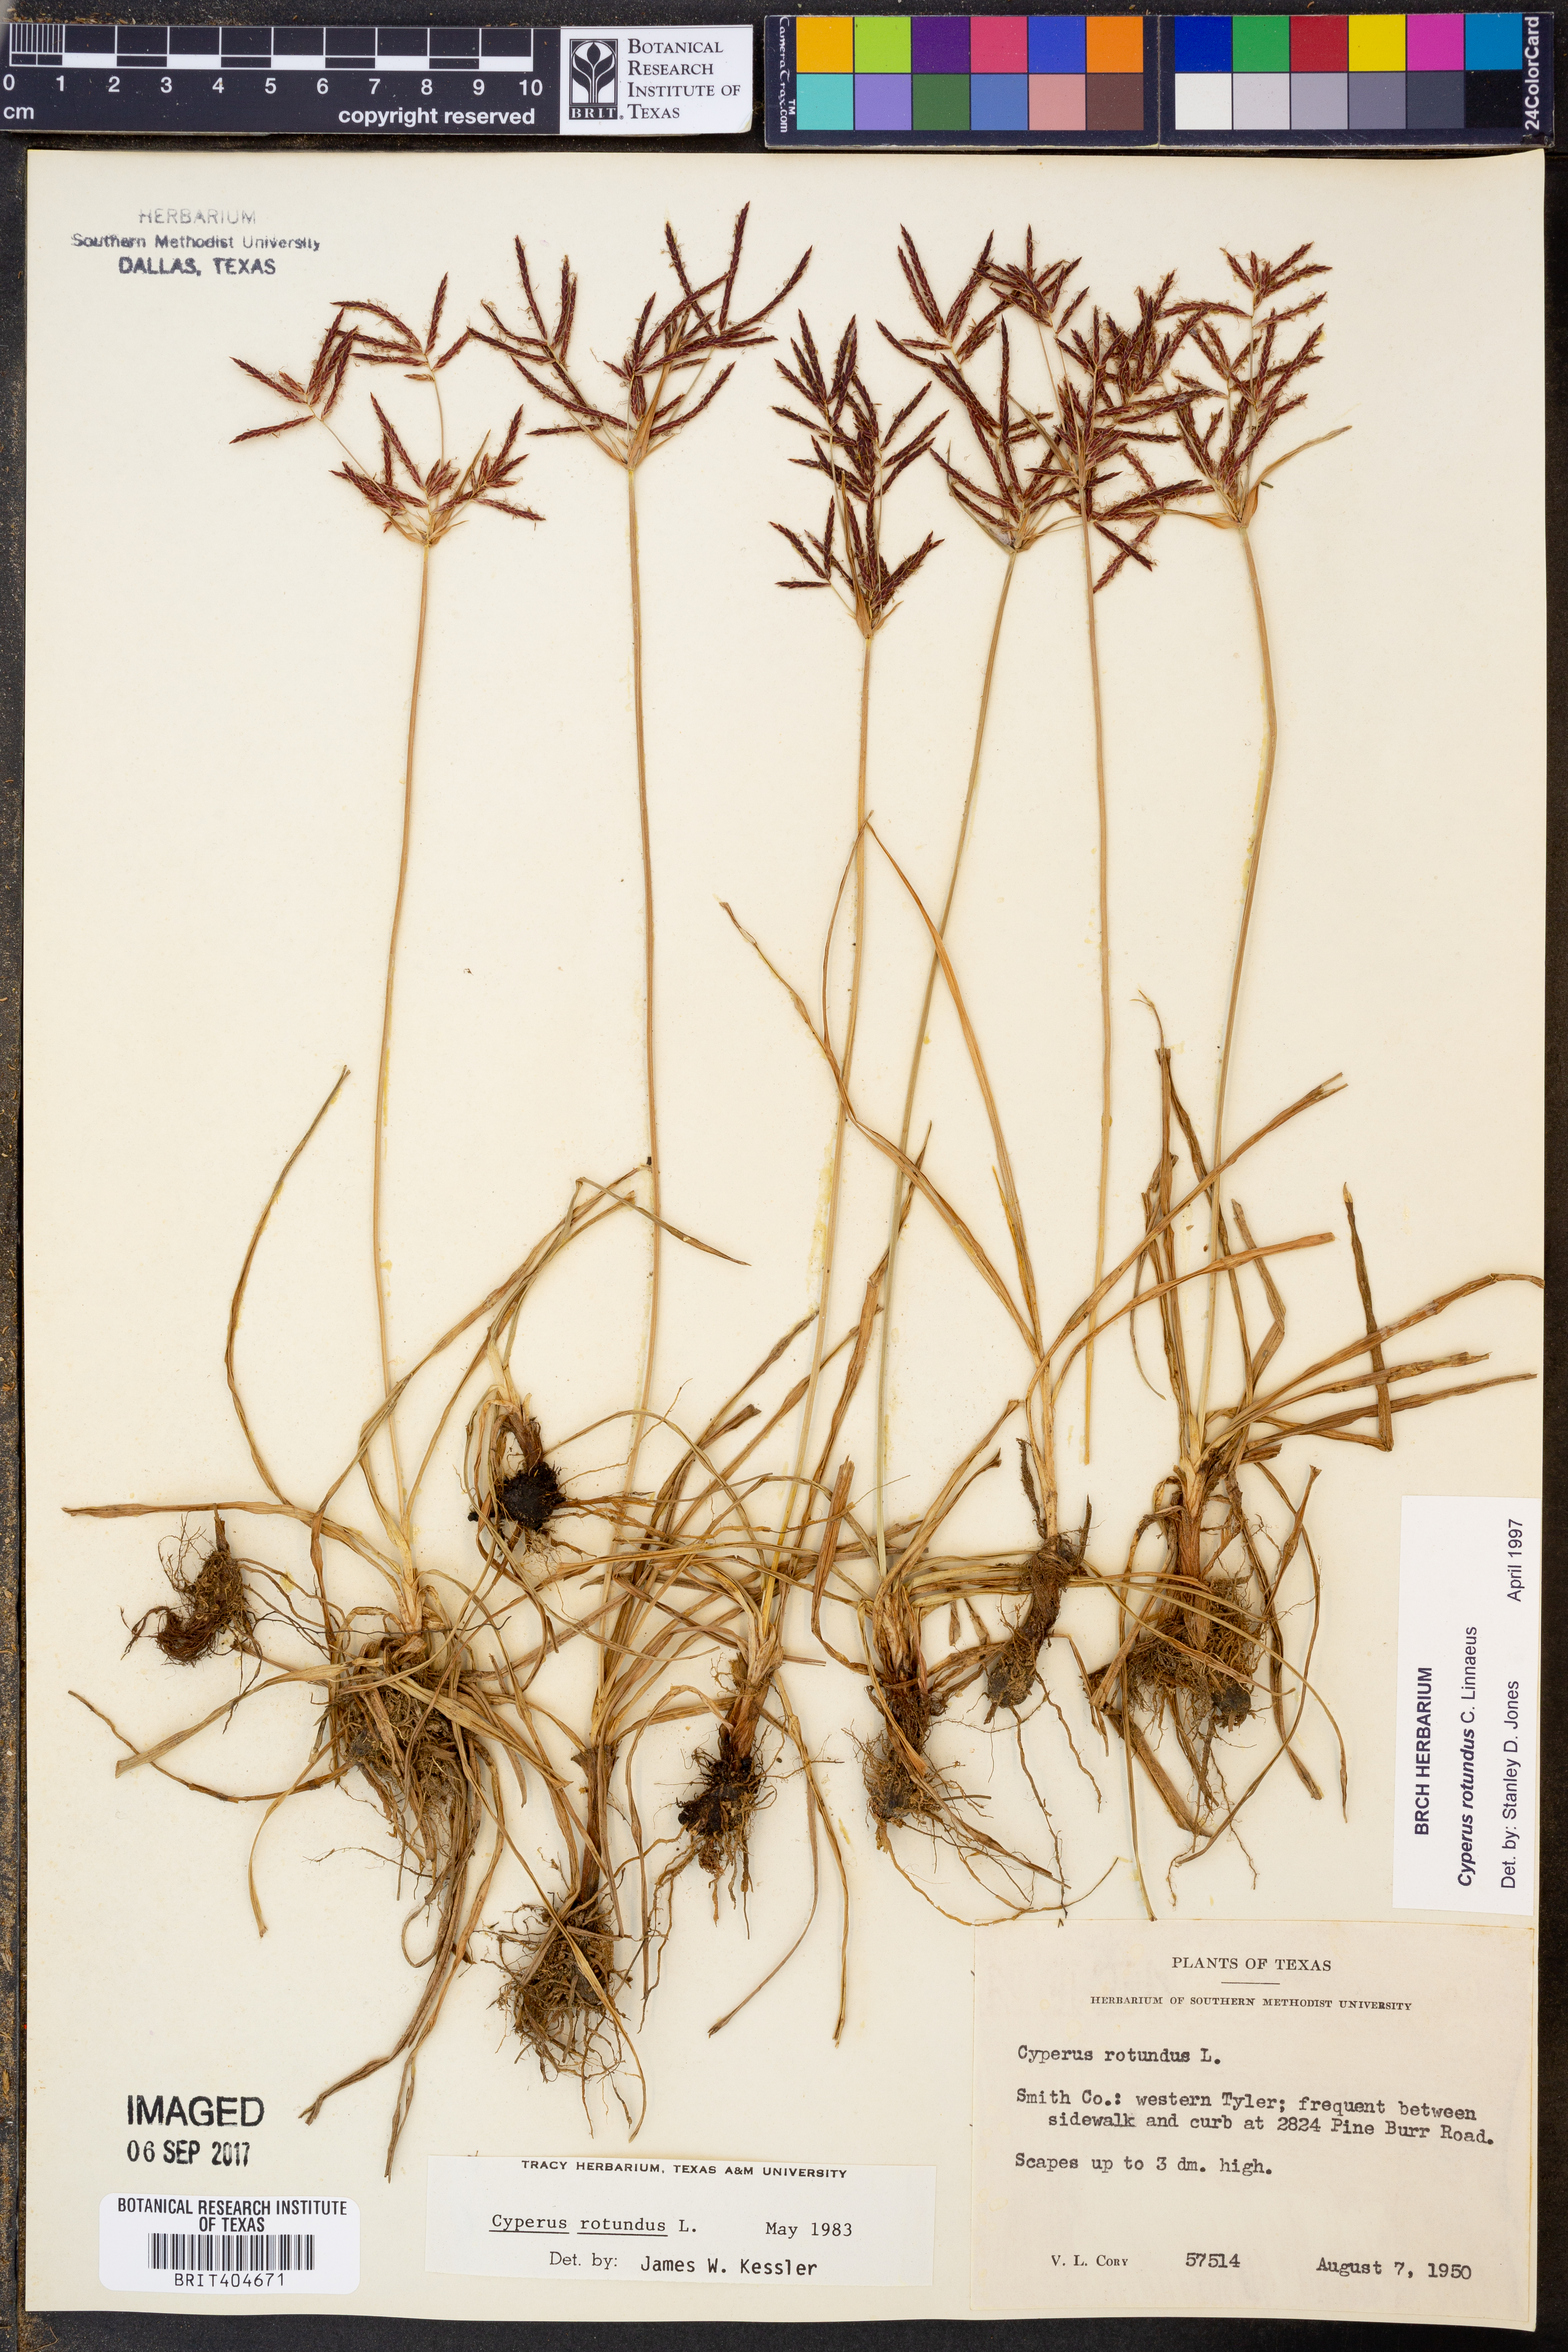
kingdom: Plantae
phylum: Tracheophyta
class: Liliopsida
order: Poales
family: Cyperaceae
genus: Cyperus
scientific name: Cyperus rotundus
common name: Nutgrass
